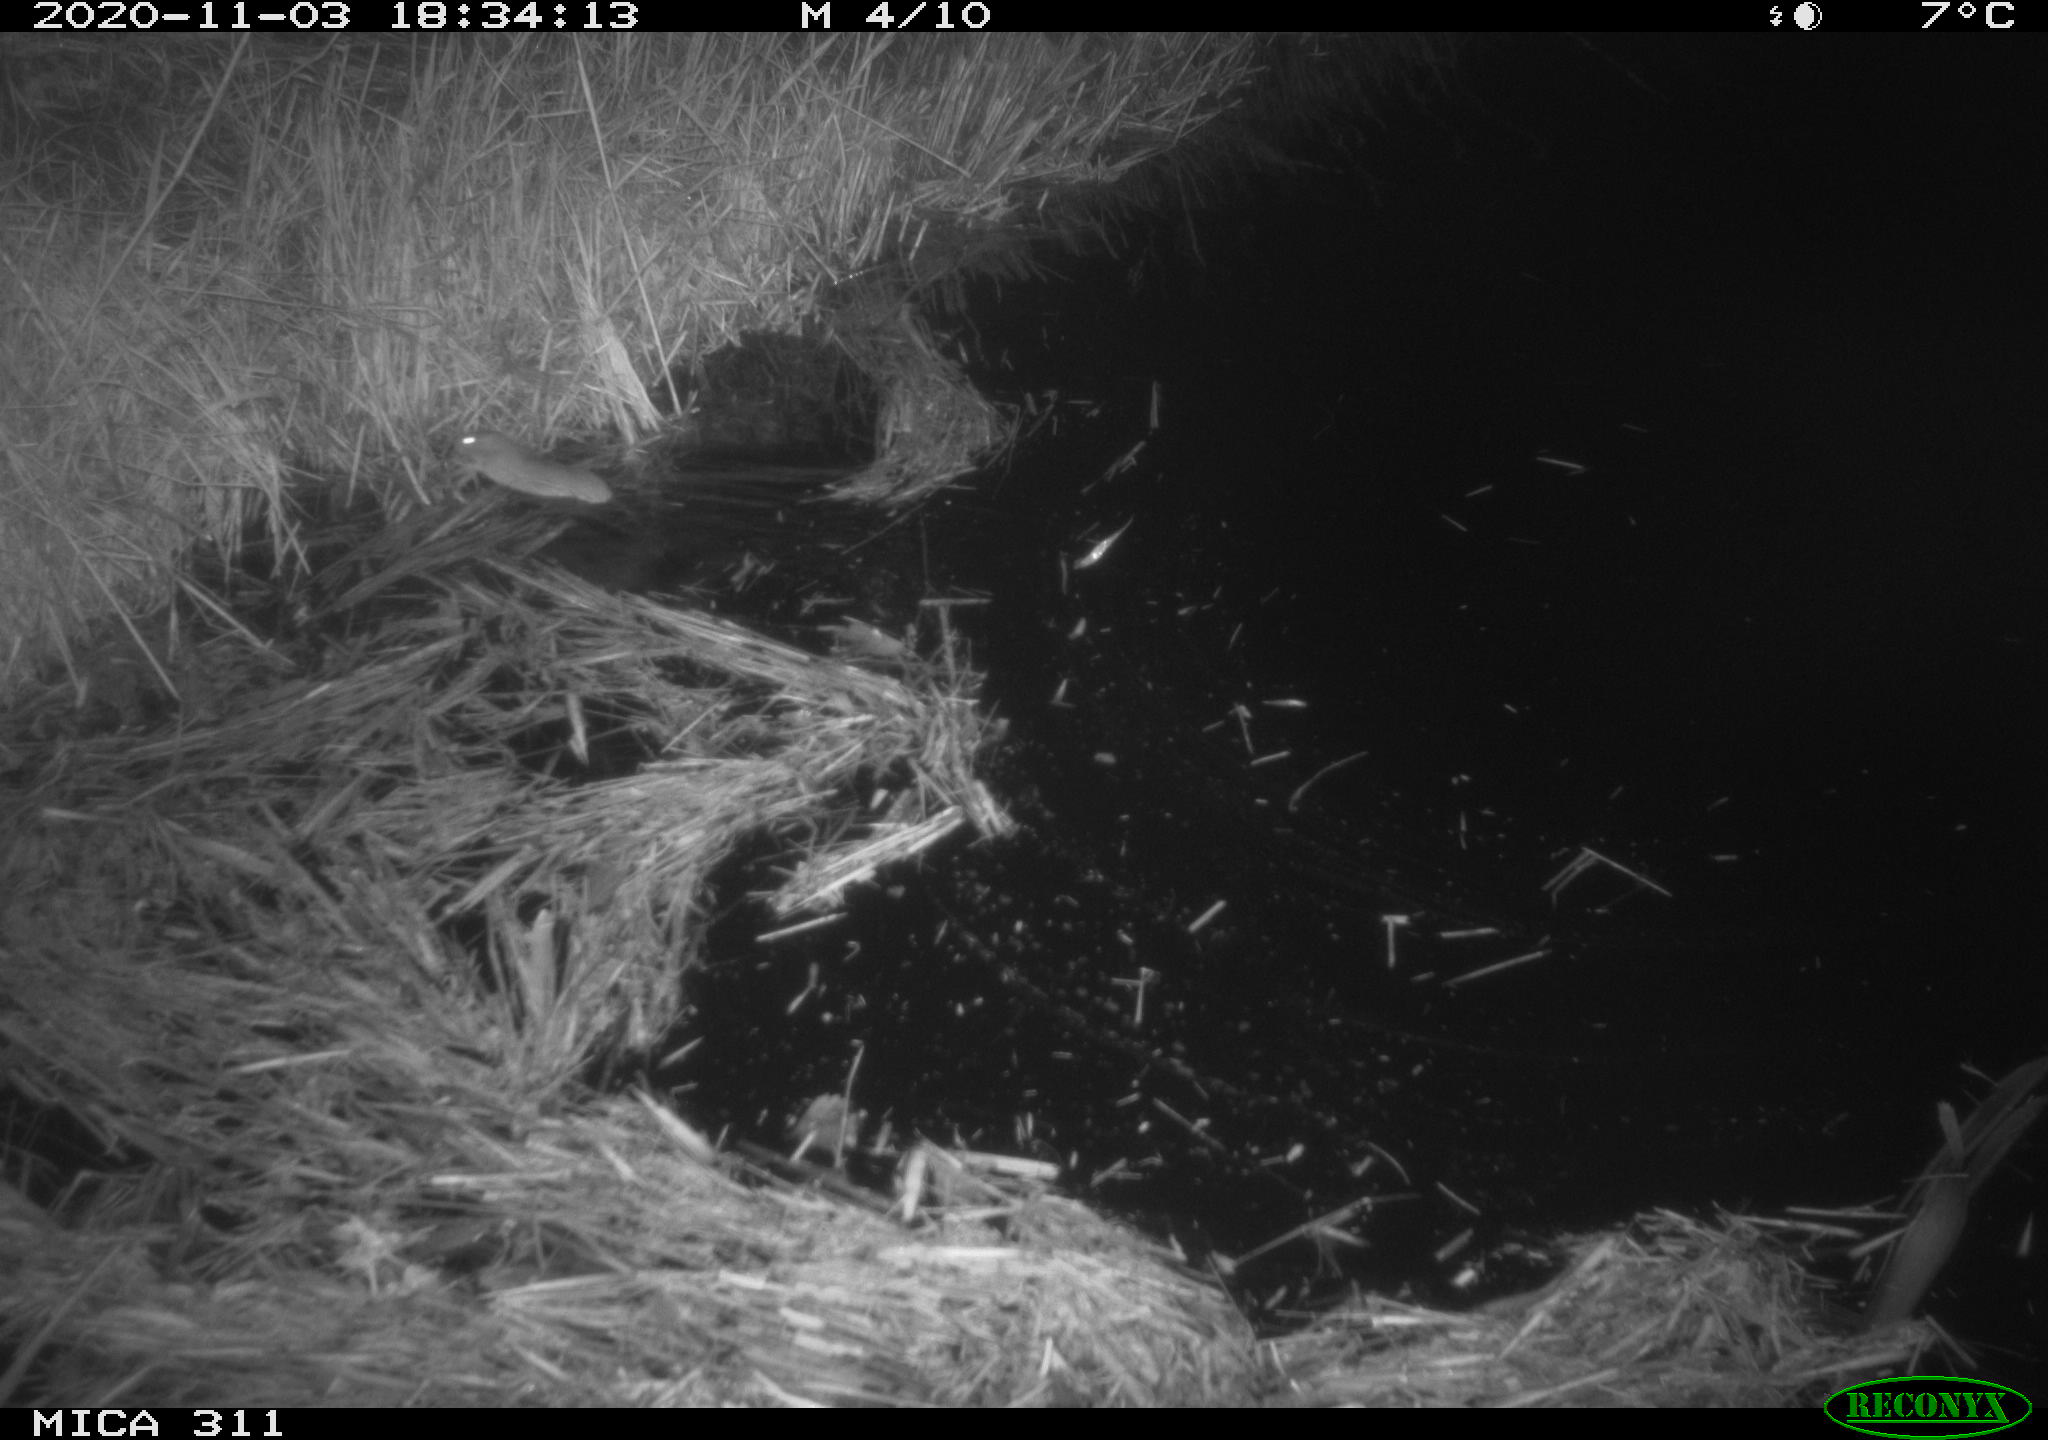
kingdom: Animalia
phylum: Chordata
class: Mammalia
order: Rodentia
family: Muridae
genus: Rattus
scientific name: Rattus norvegicus
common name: Brown rat
